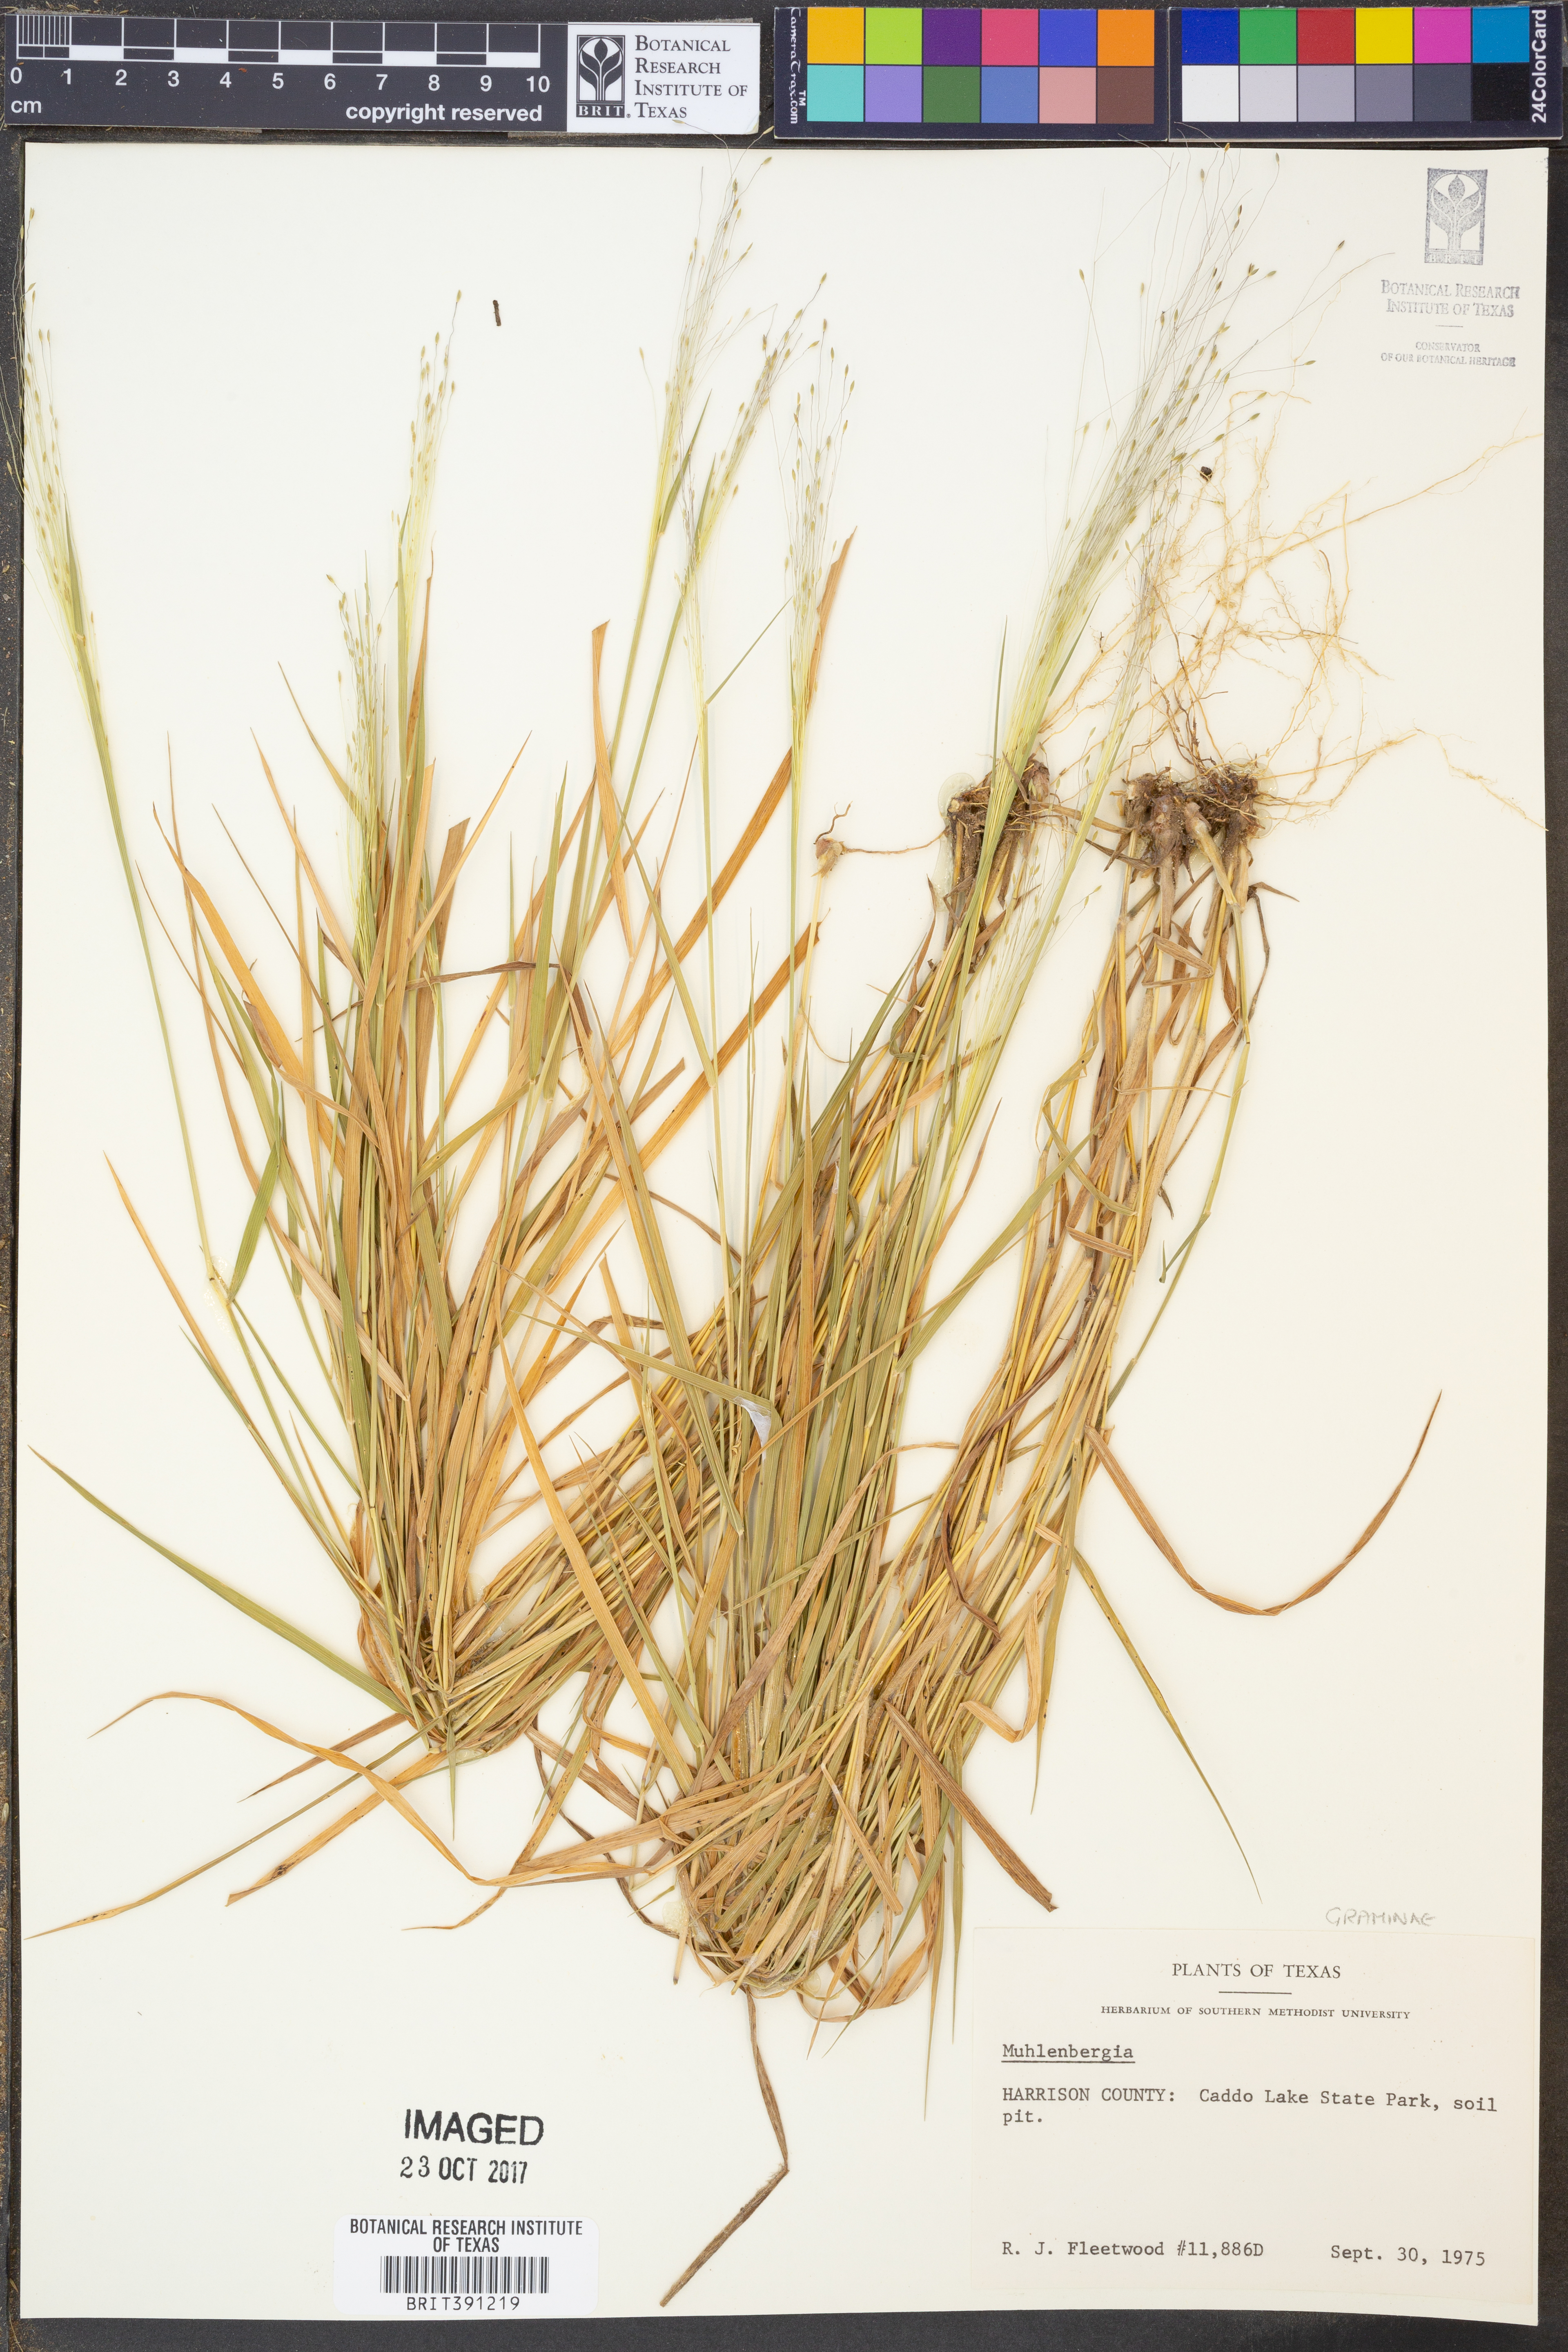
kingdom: Plantae
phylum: Tracheophyta
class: Liliopsida
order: Poales
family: Poaceae
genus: Muhlenbergia
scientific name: Muhlenbergia
